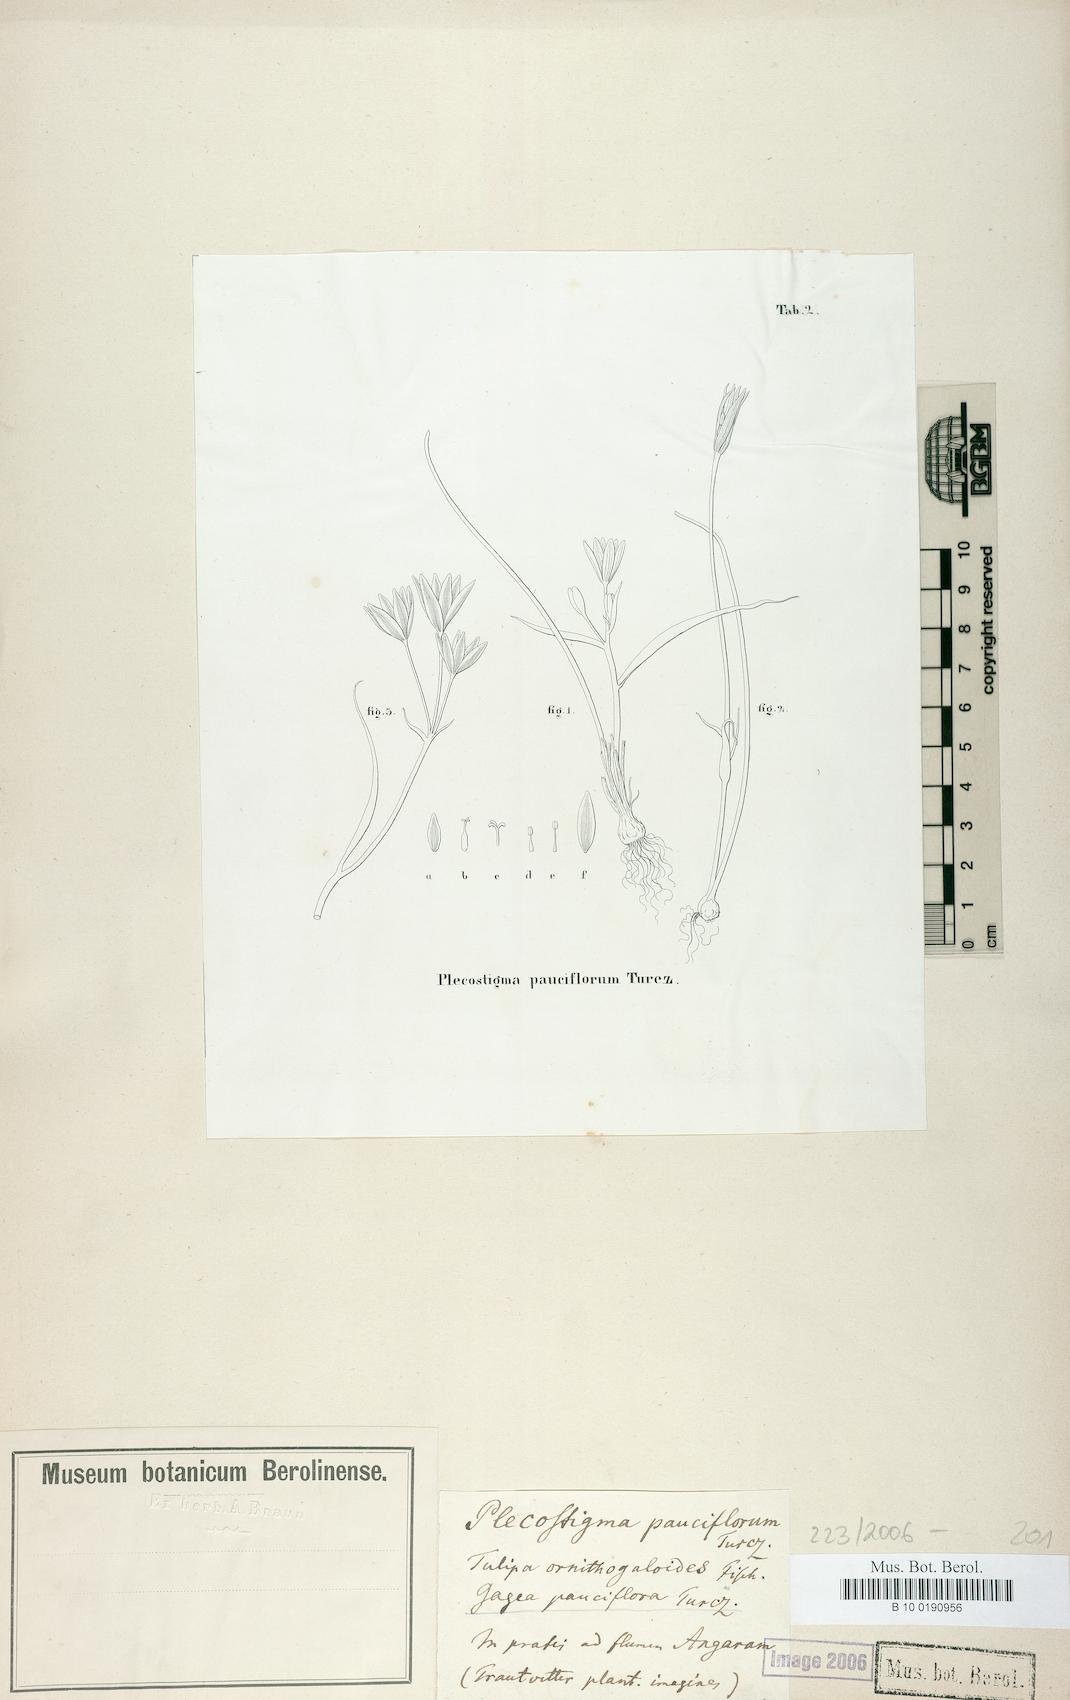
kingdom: Plantae
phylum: Tracheophyta
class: Liliopsida
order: Liliales
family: Liliaceae
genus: Gagea
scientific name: Gagea pauciflora
